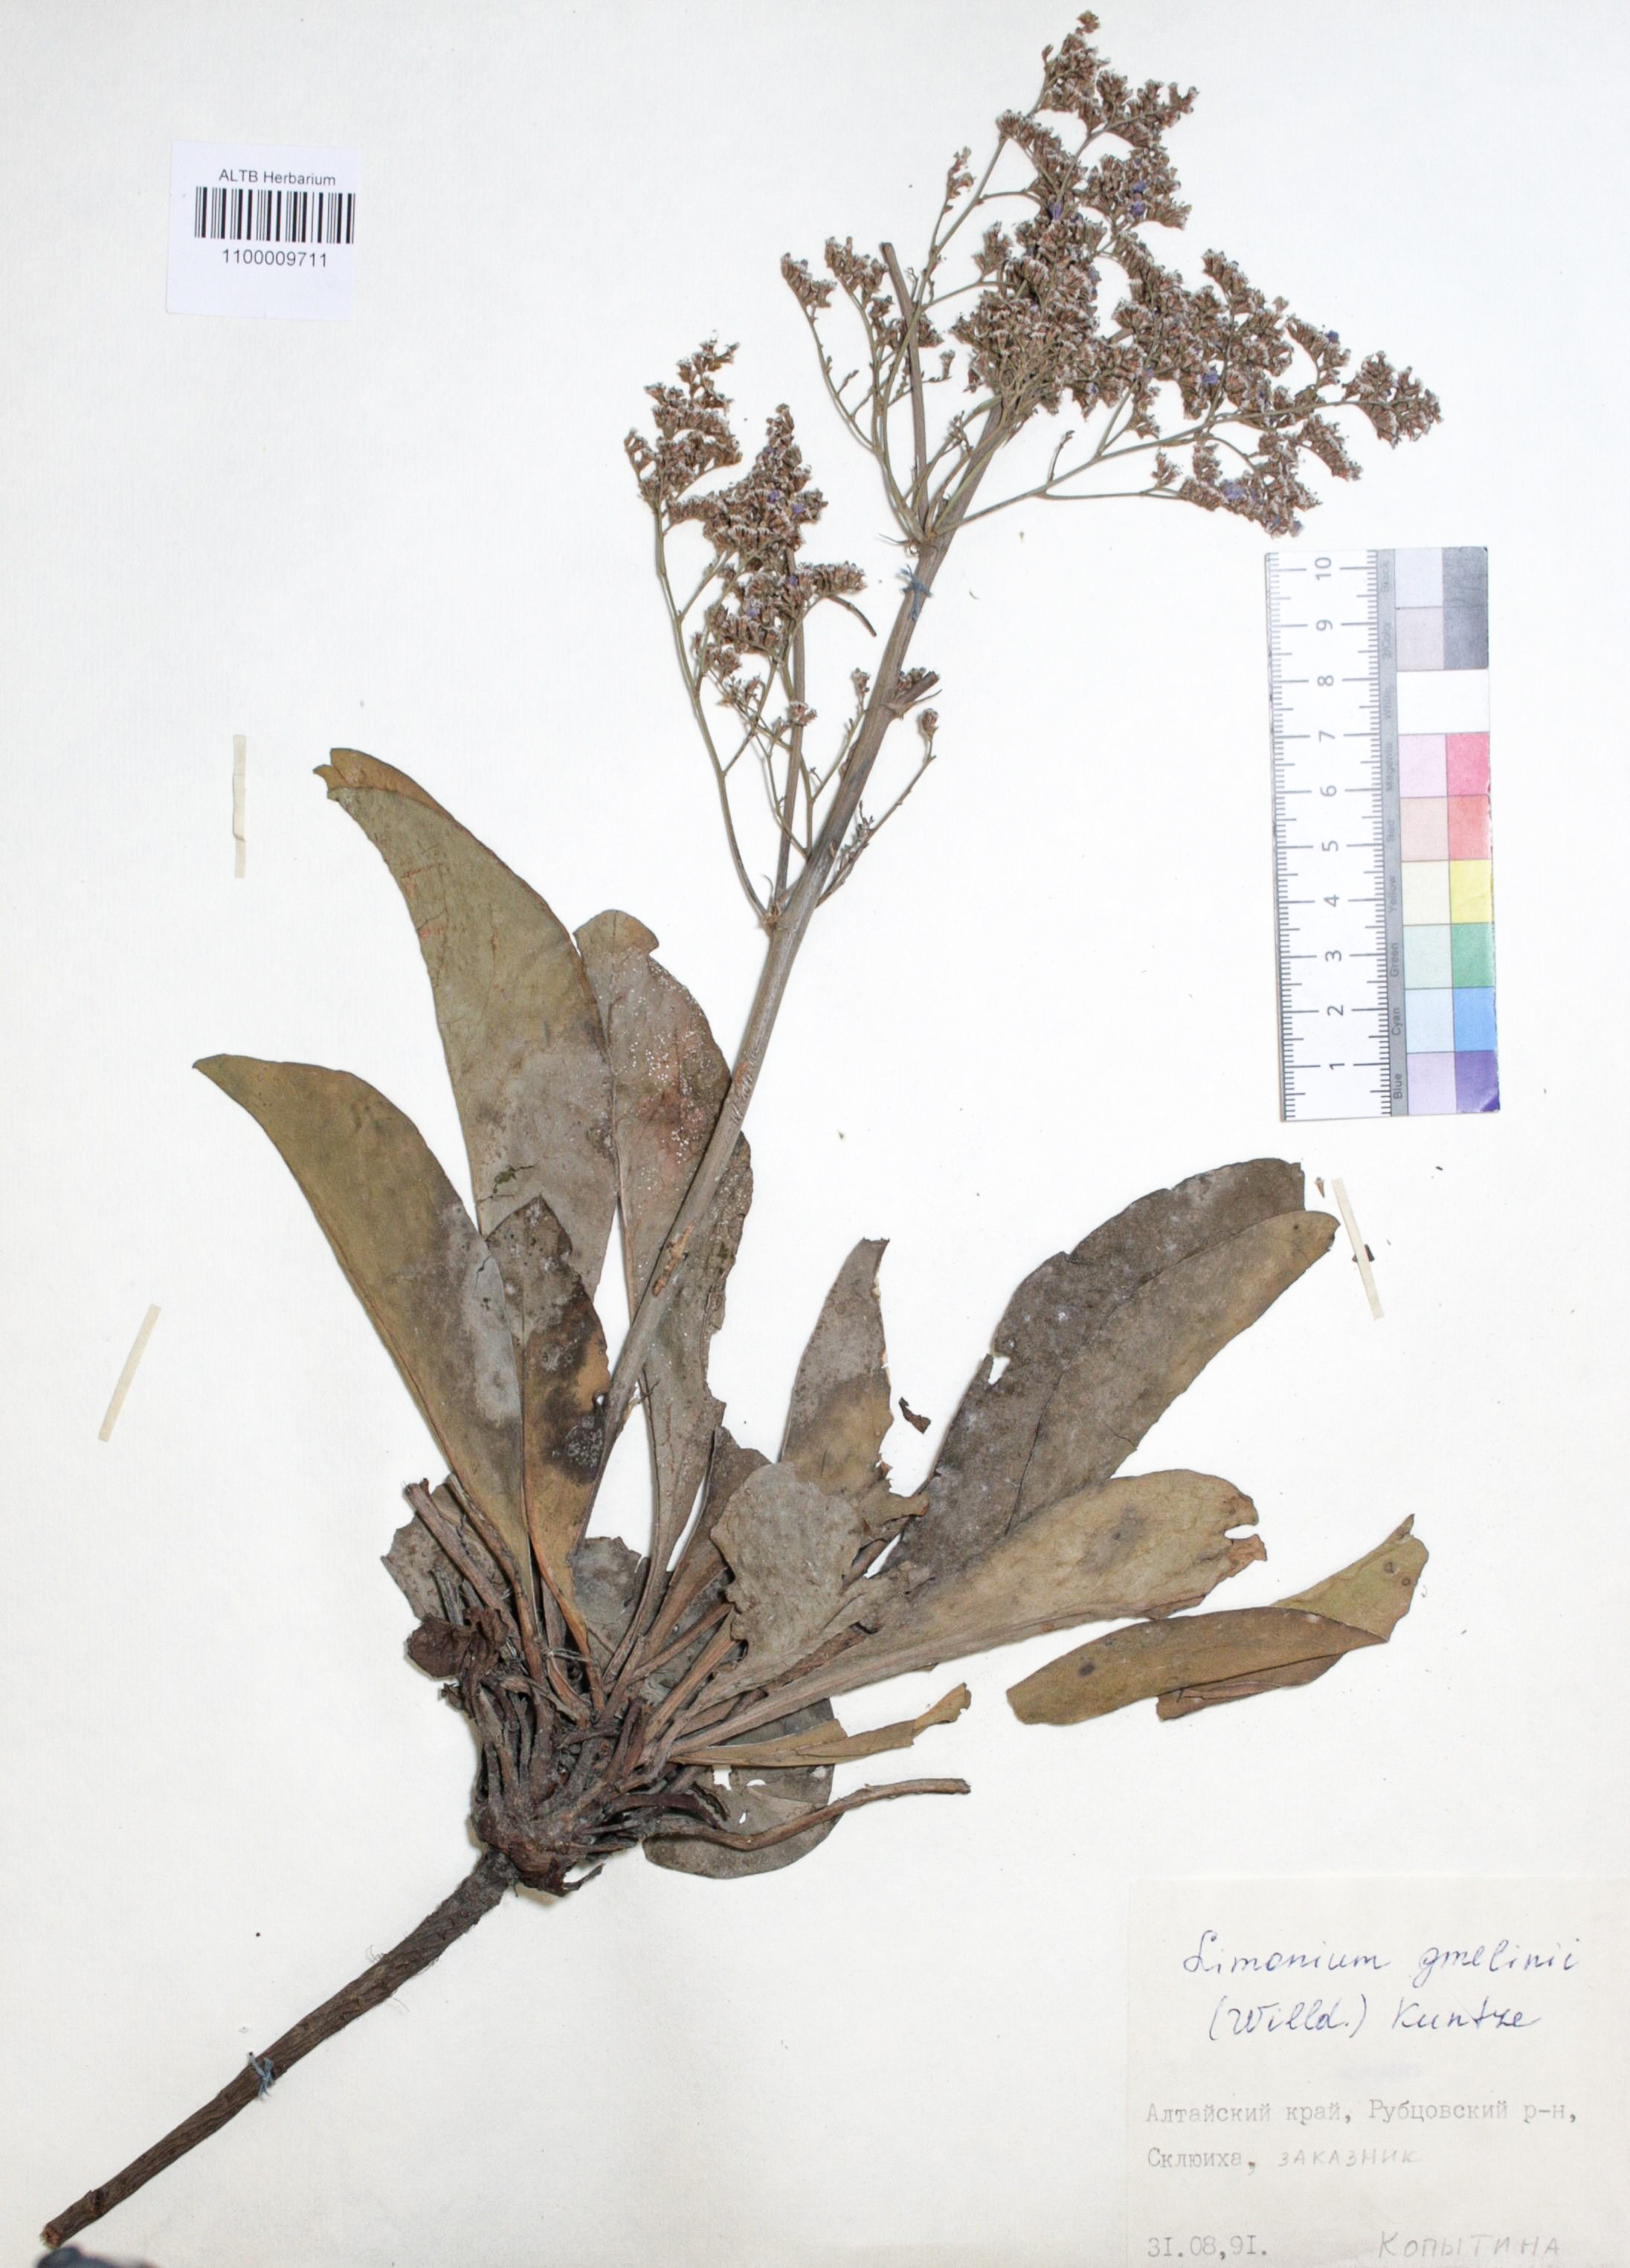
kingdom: Plantae
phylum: Tracheophyta
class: Magnoliopsida
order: Caryophyllales
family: Plumbaginaceae
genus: Limonium
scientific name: Limonium gmelini
